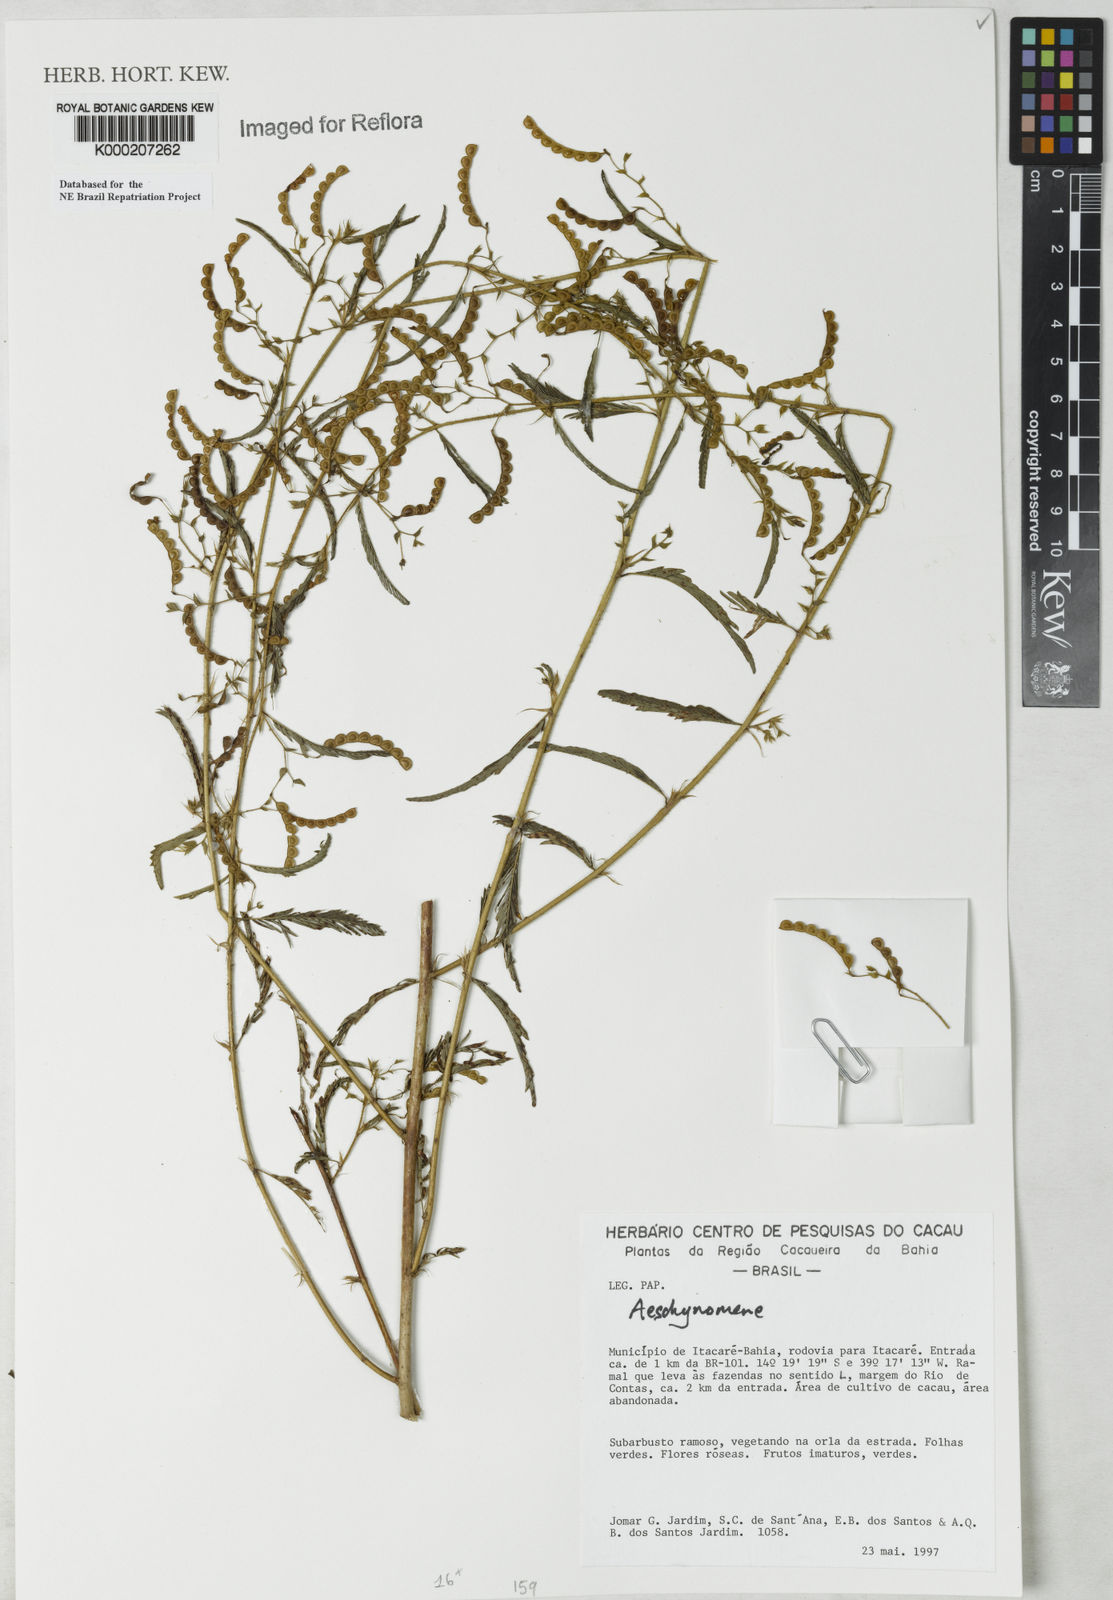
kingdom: Plantae
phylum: Tracheophyta
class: Magnoliopsida
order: Fabales
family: Fabaceae
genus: Aeschynomene
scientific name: Aeschynomene
